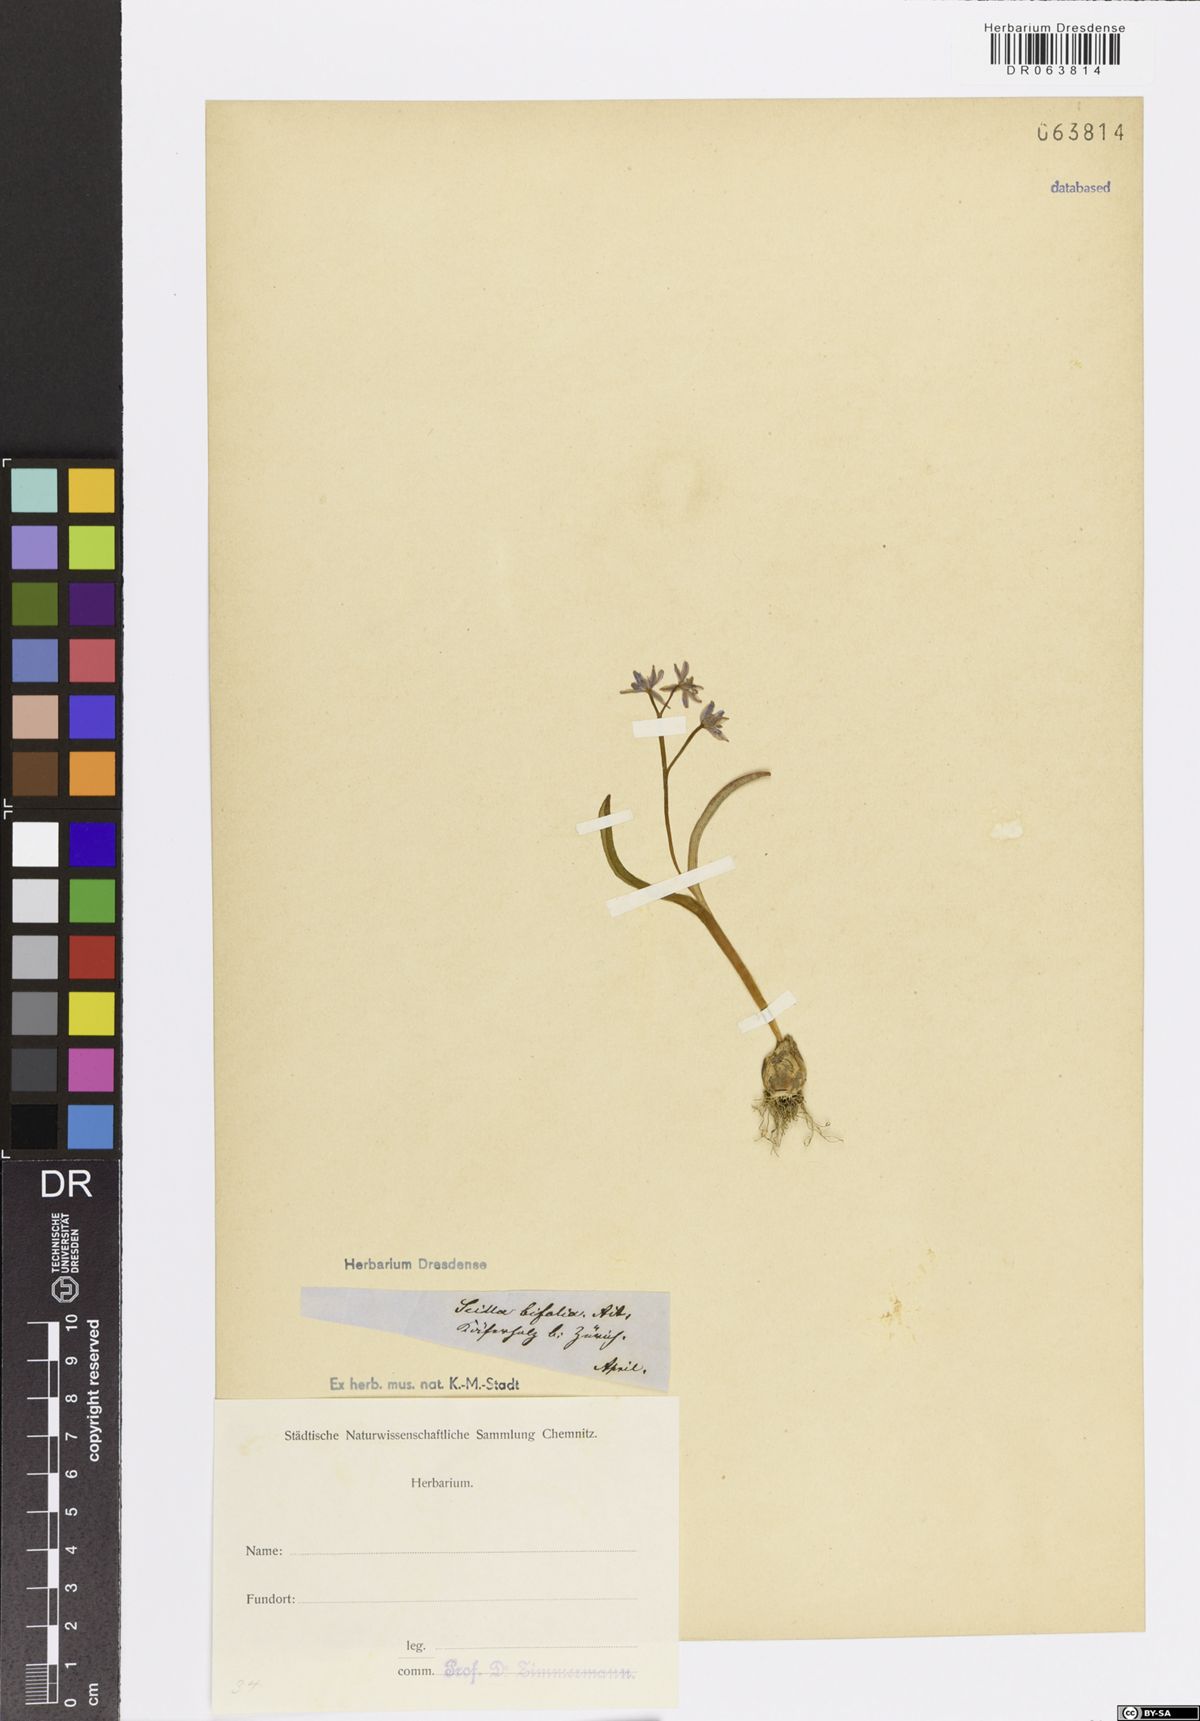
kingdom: Plantae
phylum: Tracheophyta
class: Liliopsida
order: Asparagales
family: Asparagaceae
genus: Scilla
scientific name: Scilla bifolia
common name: Alpine squill
